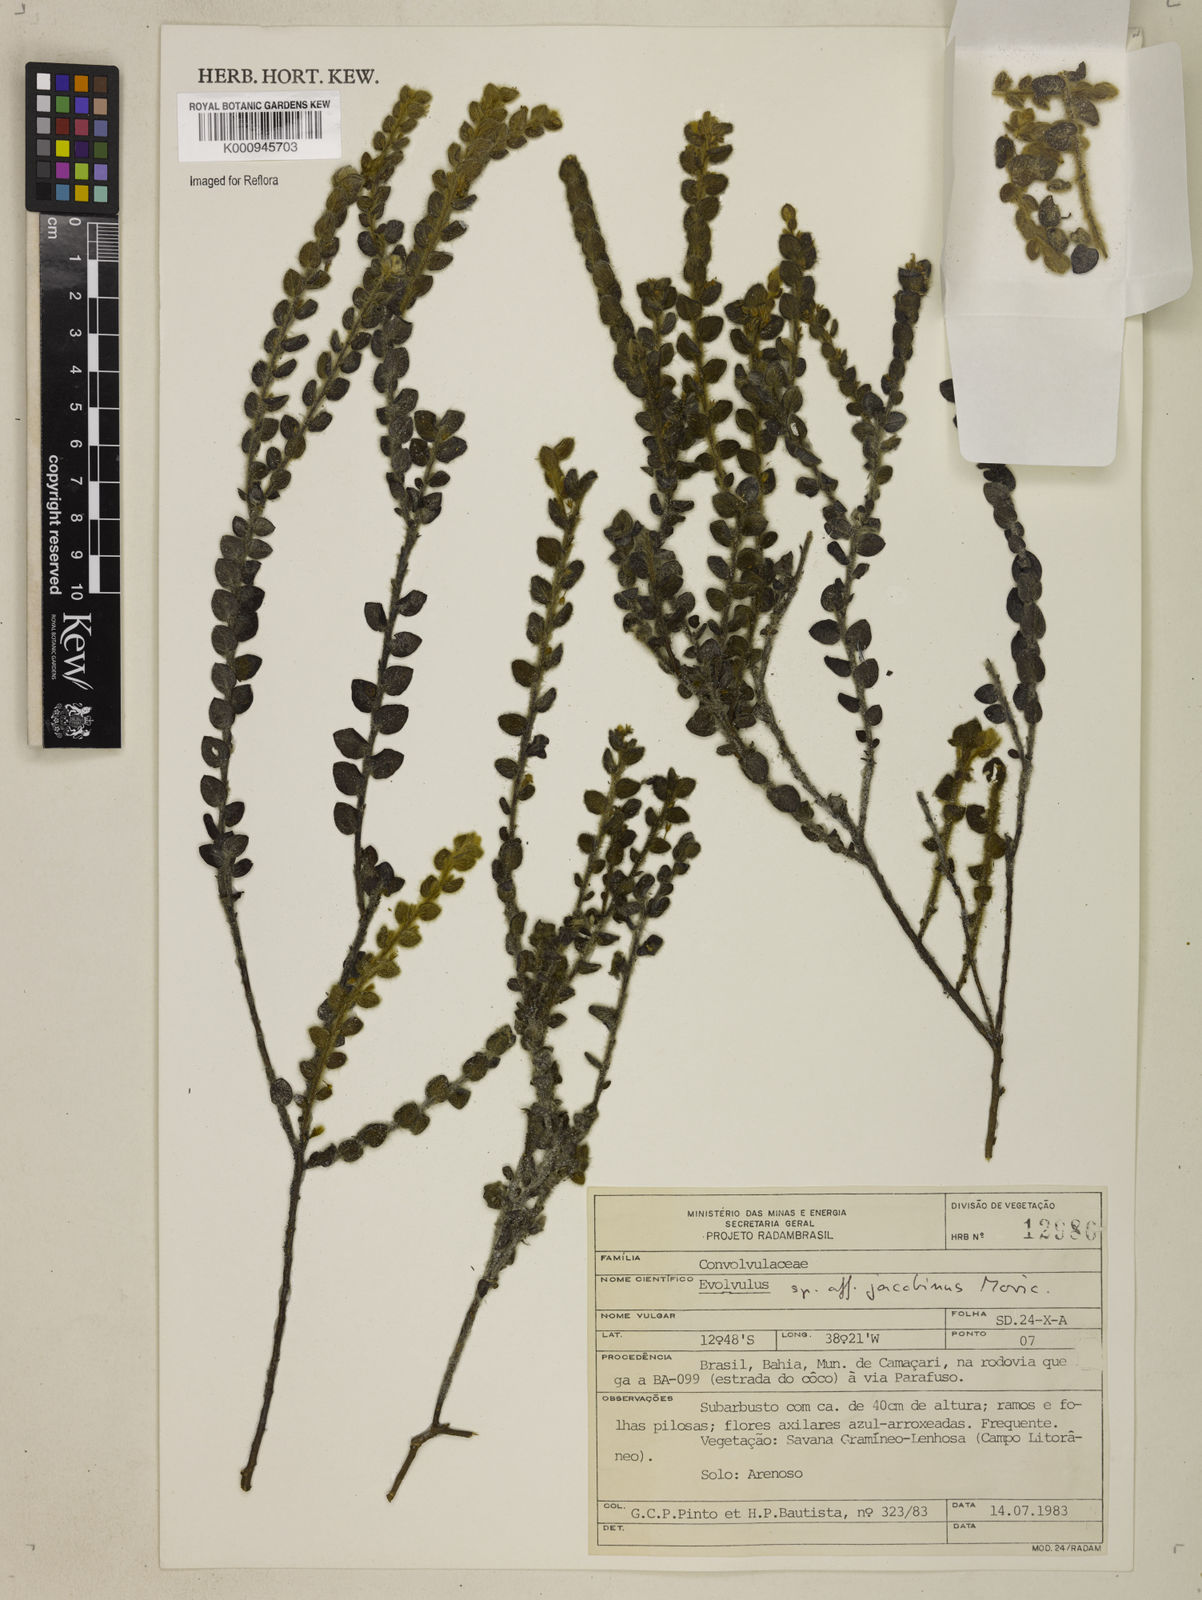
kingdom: Plantae
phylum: Tracheophyta
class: Magnoliopsida
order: Solanales
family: Convolvulaceae
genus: Evolvulus
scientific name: Evolvulus jacobinus
